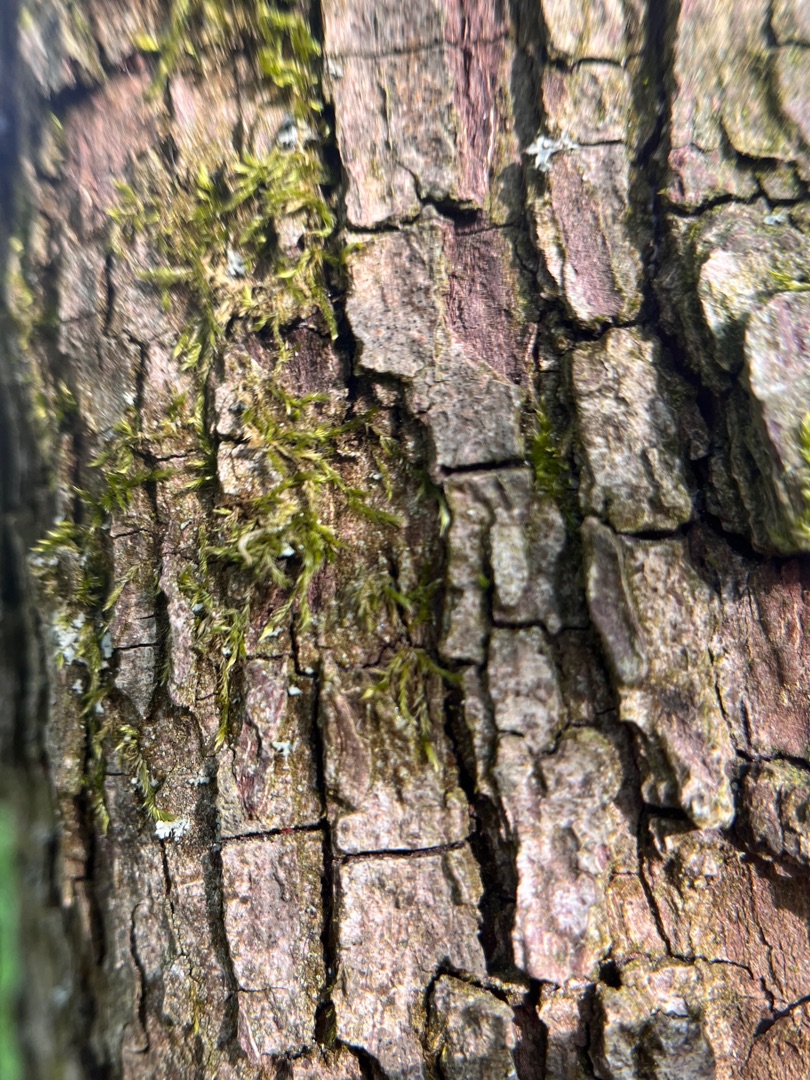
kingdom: Plantae
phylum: Bryophyta
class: Bryopsida
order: Hypnales
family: Hypnaceae
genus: Hypnum
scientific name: Hypnum
